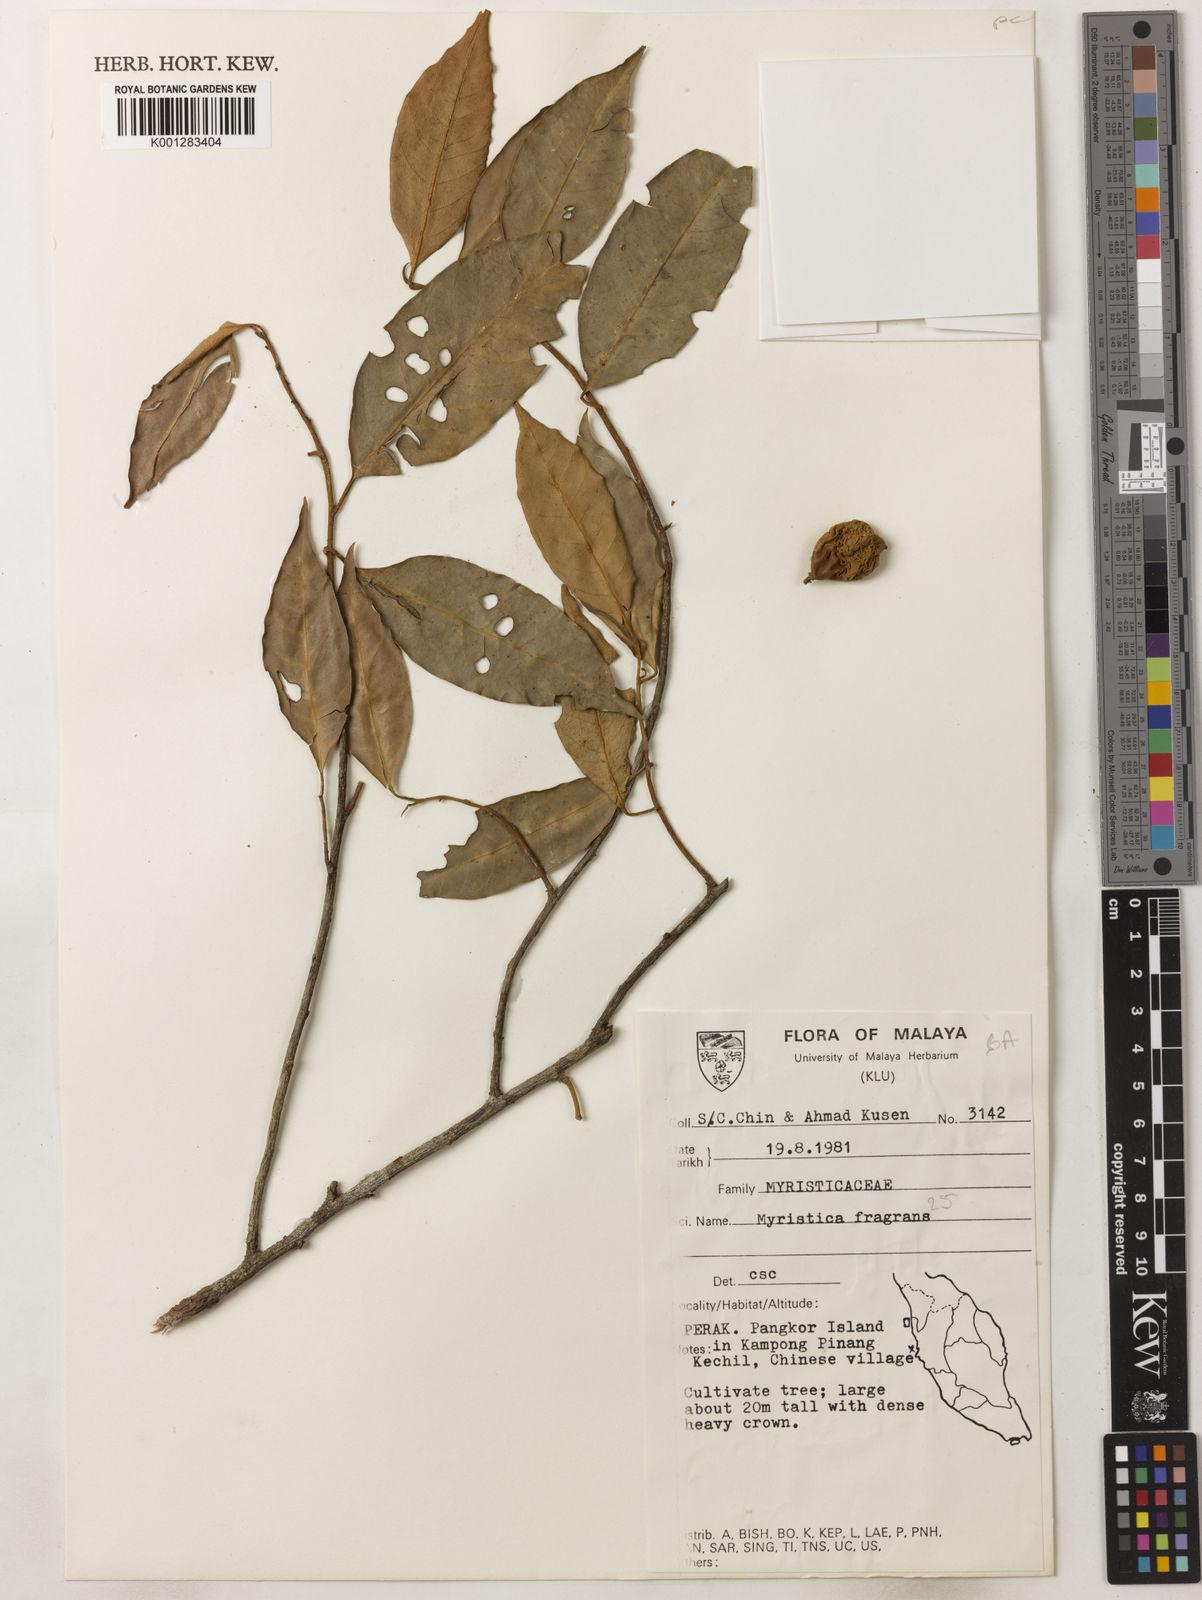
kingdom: Plantae
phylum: Tracheophyta
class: Magnoliopsida
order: Magnoliales
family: Myristicaceae
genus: Myristica
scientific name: Myristica fragrans
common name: Nutmeg
